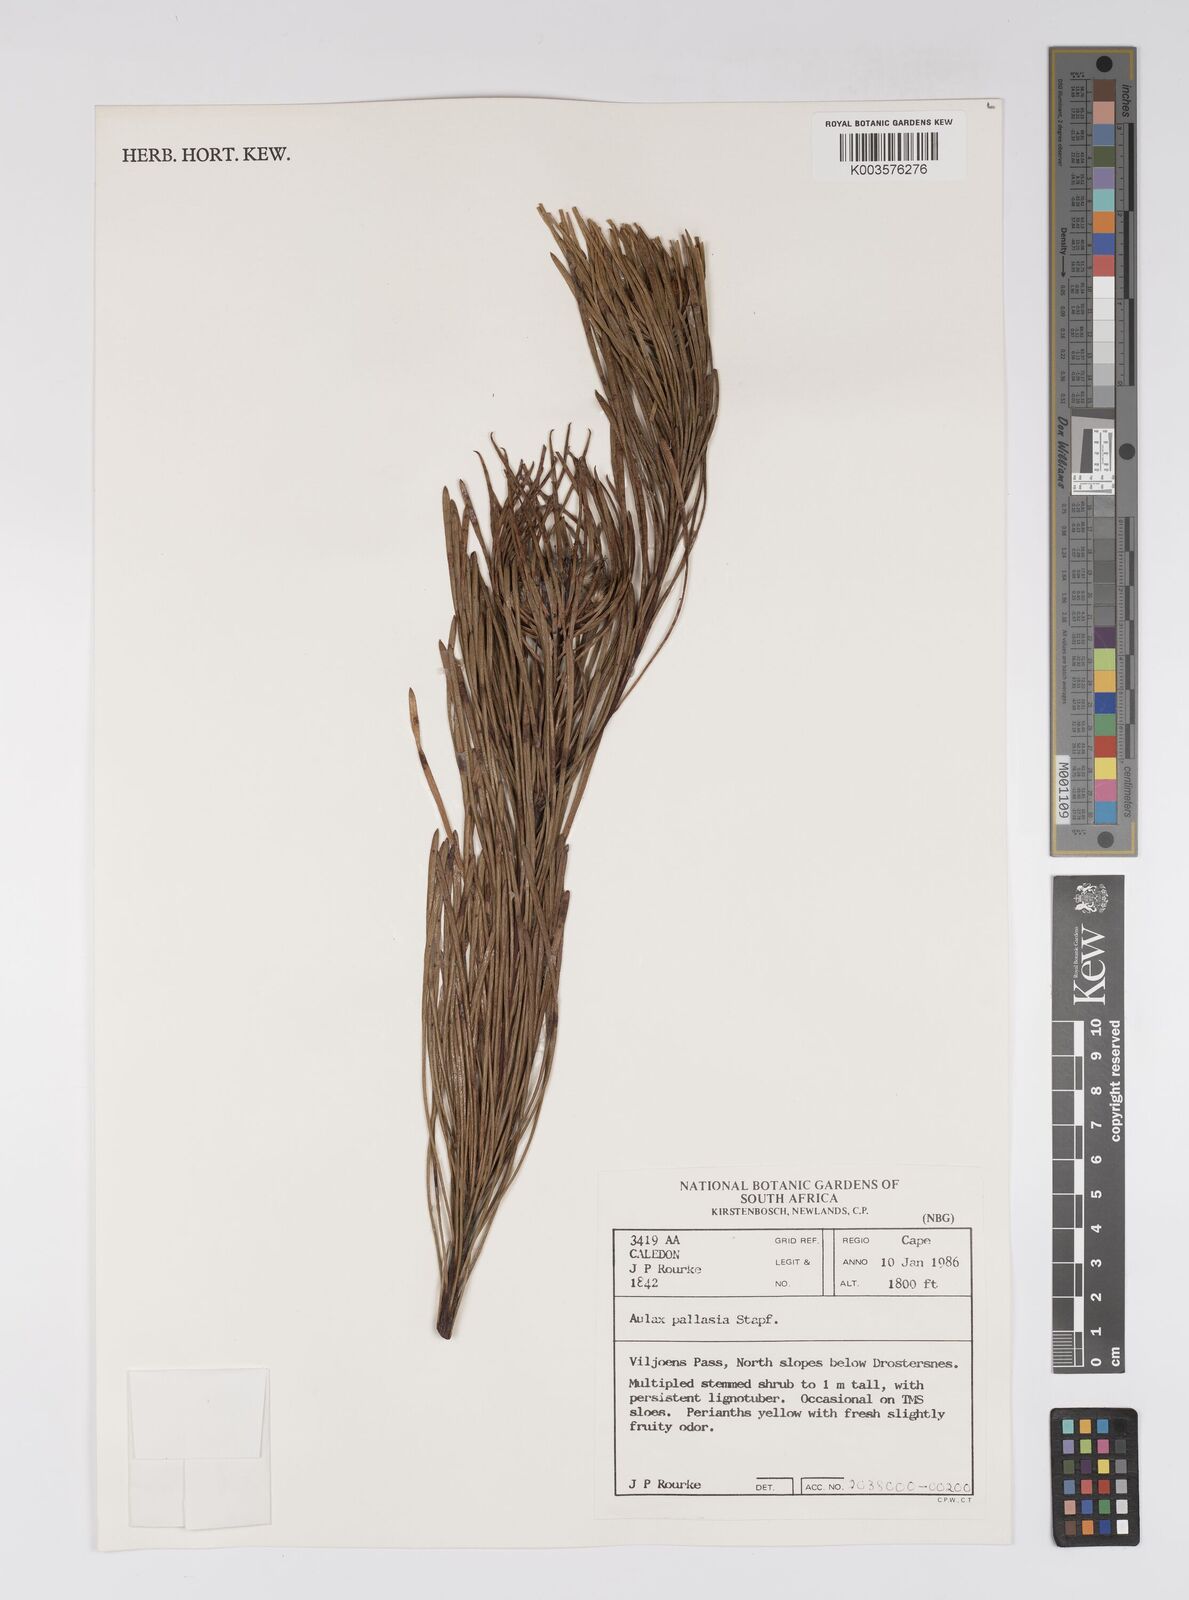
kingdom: Plantae
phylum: Tracheophyta
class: Magnoliopsida
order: Proteales
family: Proteaceae
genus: Aulax
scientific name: Aulax pallasia
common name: Needle-leaf featherbush
